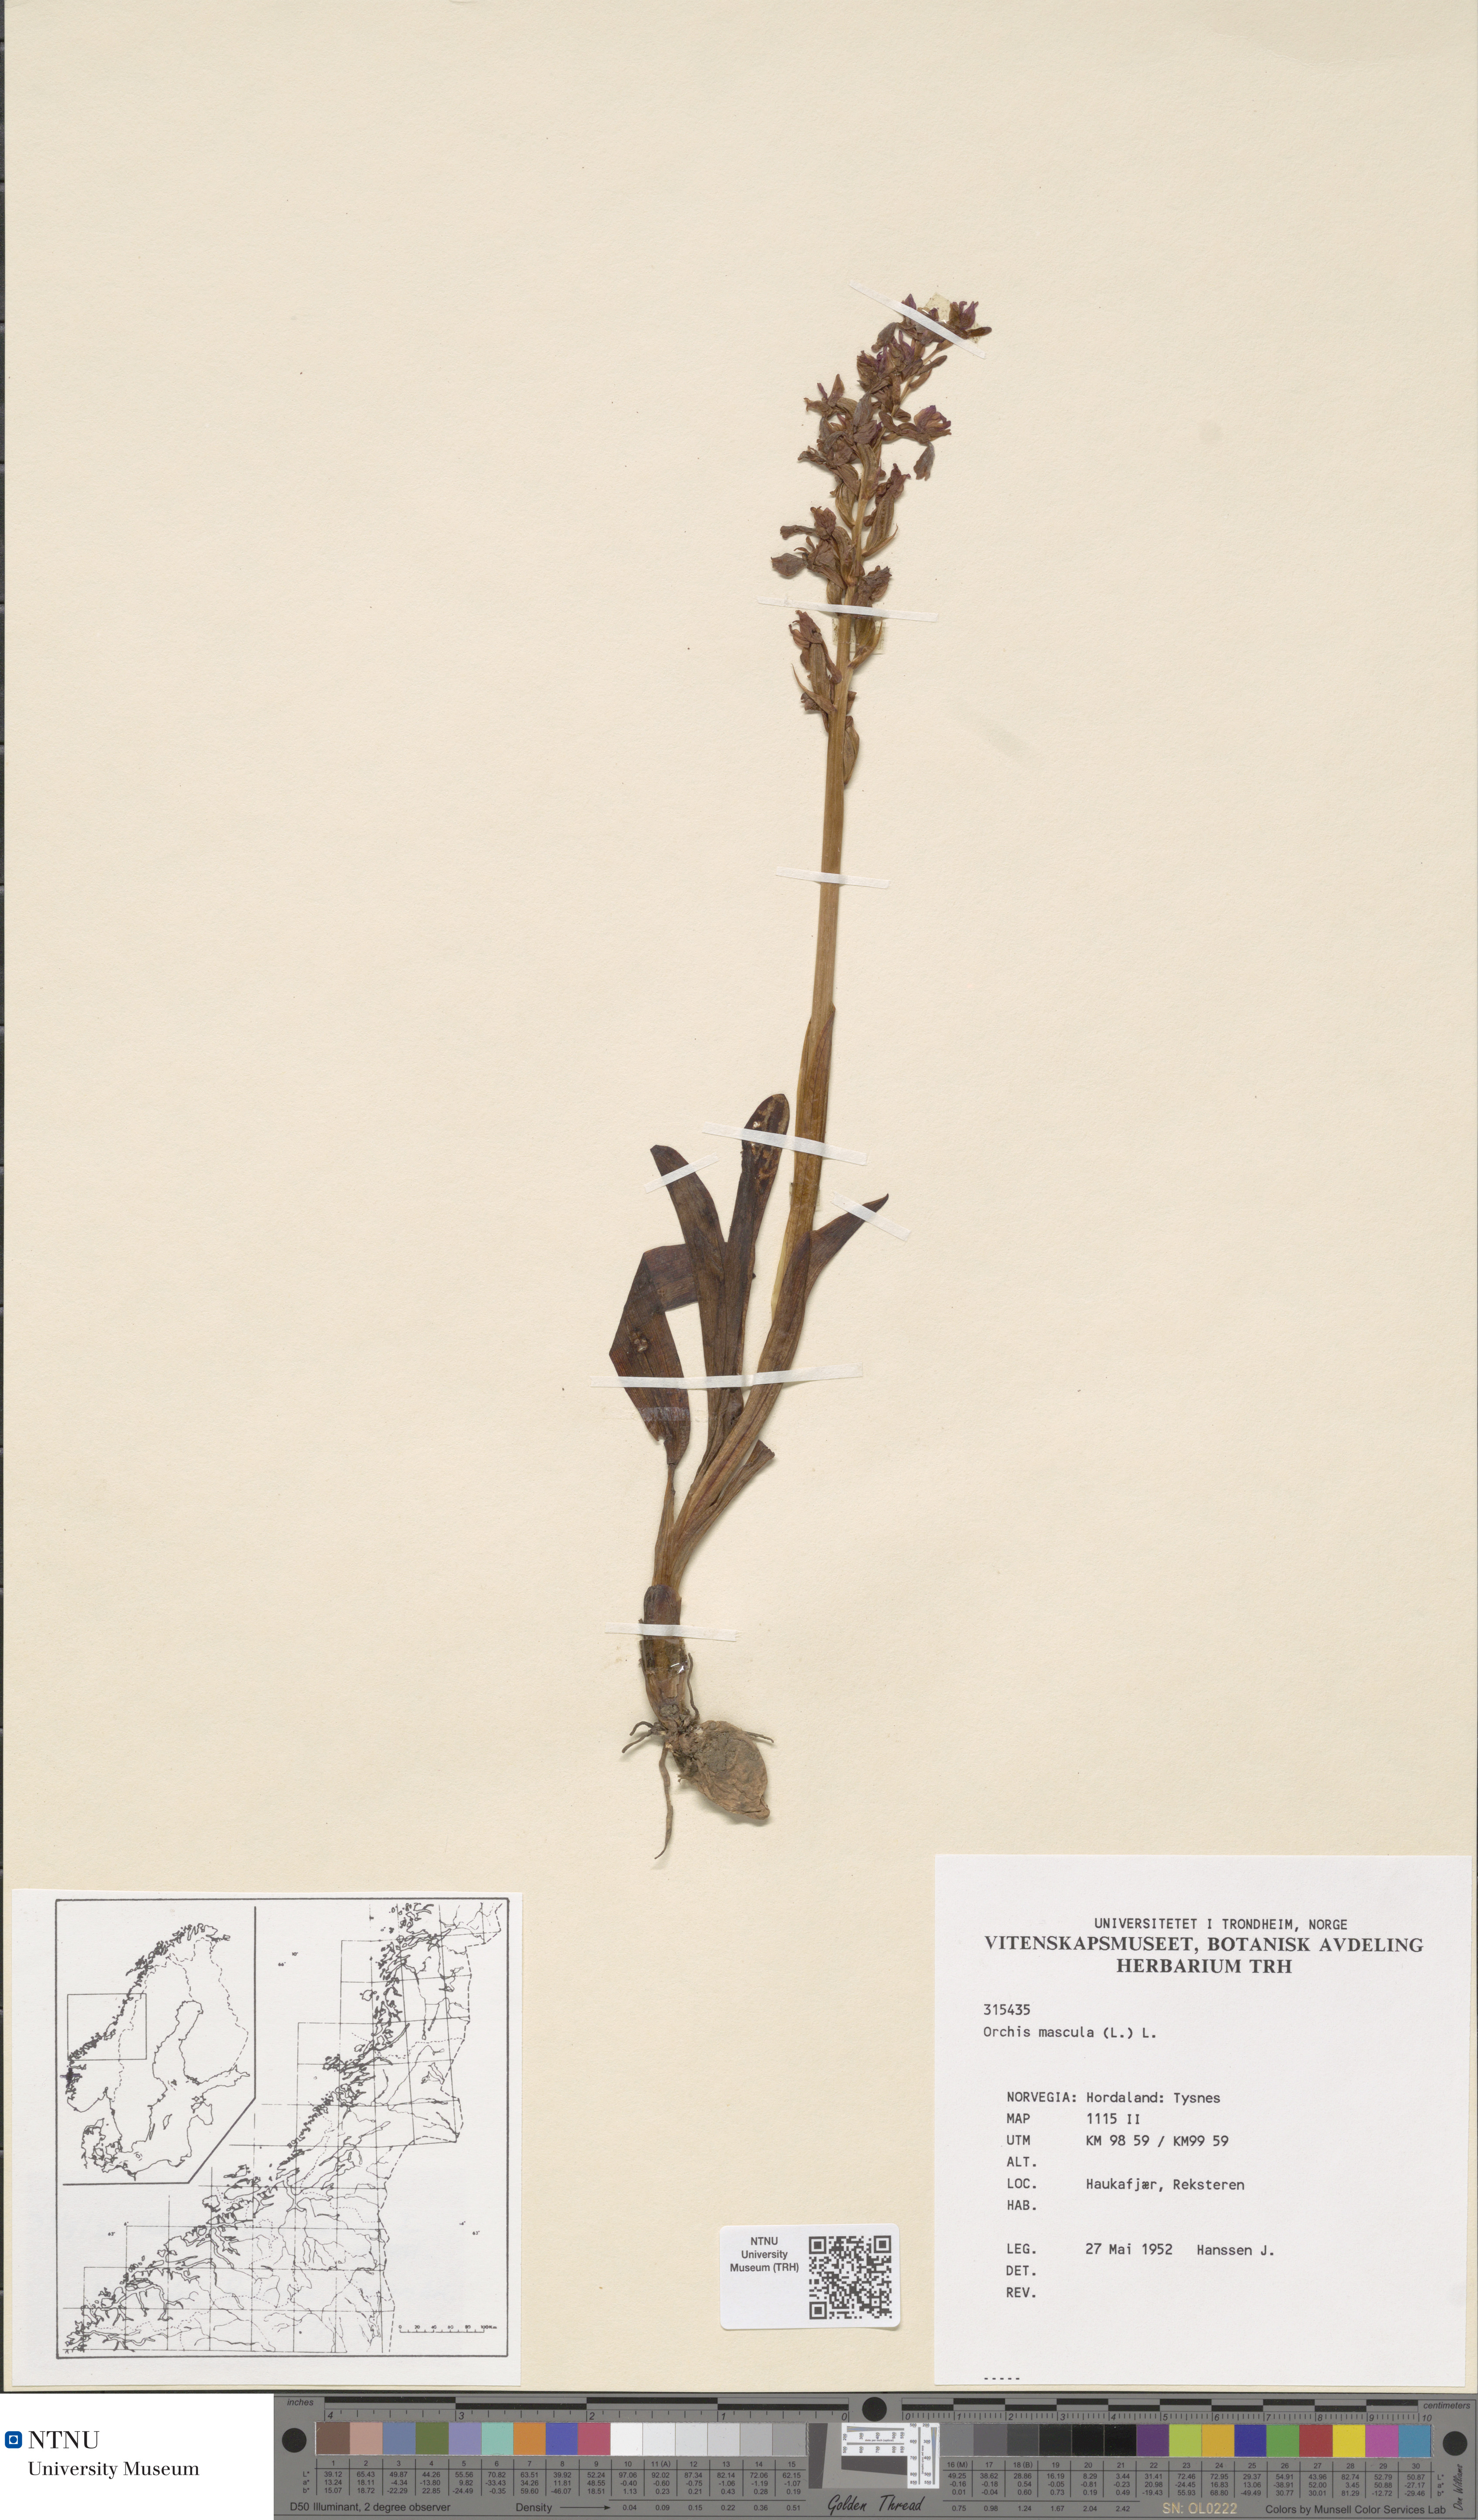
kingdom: Plantae
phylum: Tracheophyta
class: Liliopsida
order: Asparagales
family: Orchidaceae
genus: Orchis
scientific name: Orchis mascula
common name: Early-purple orchid
